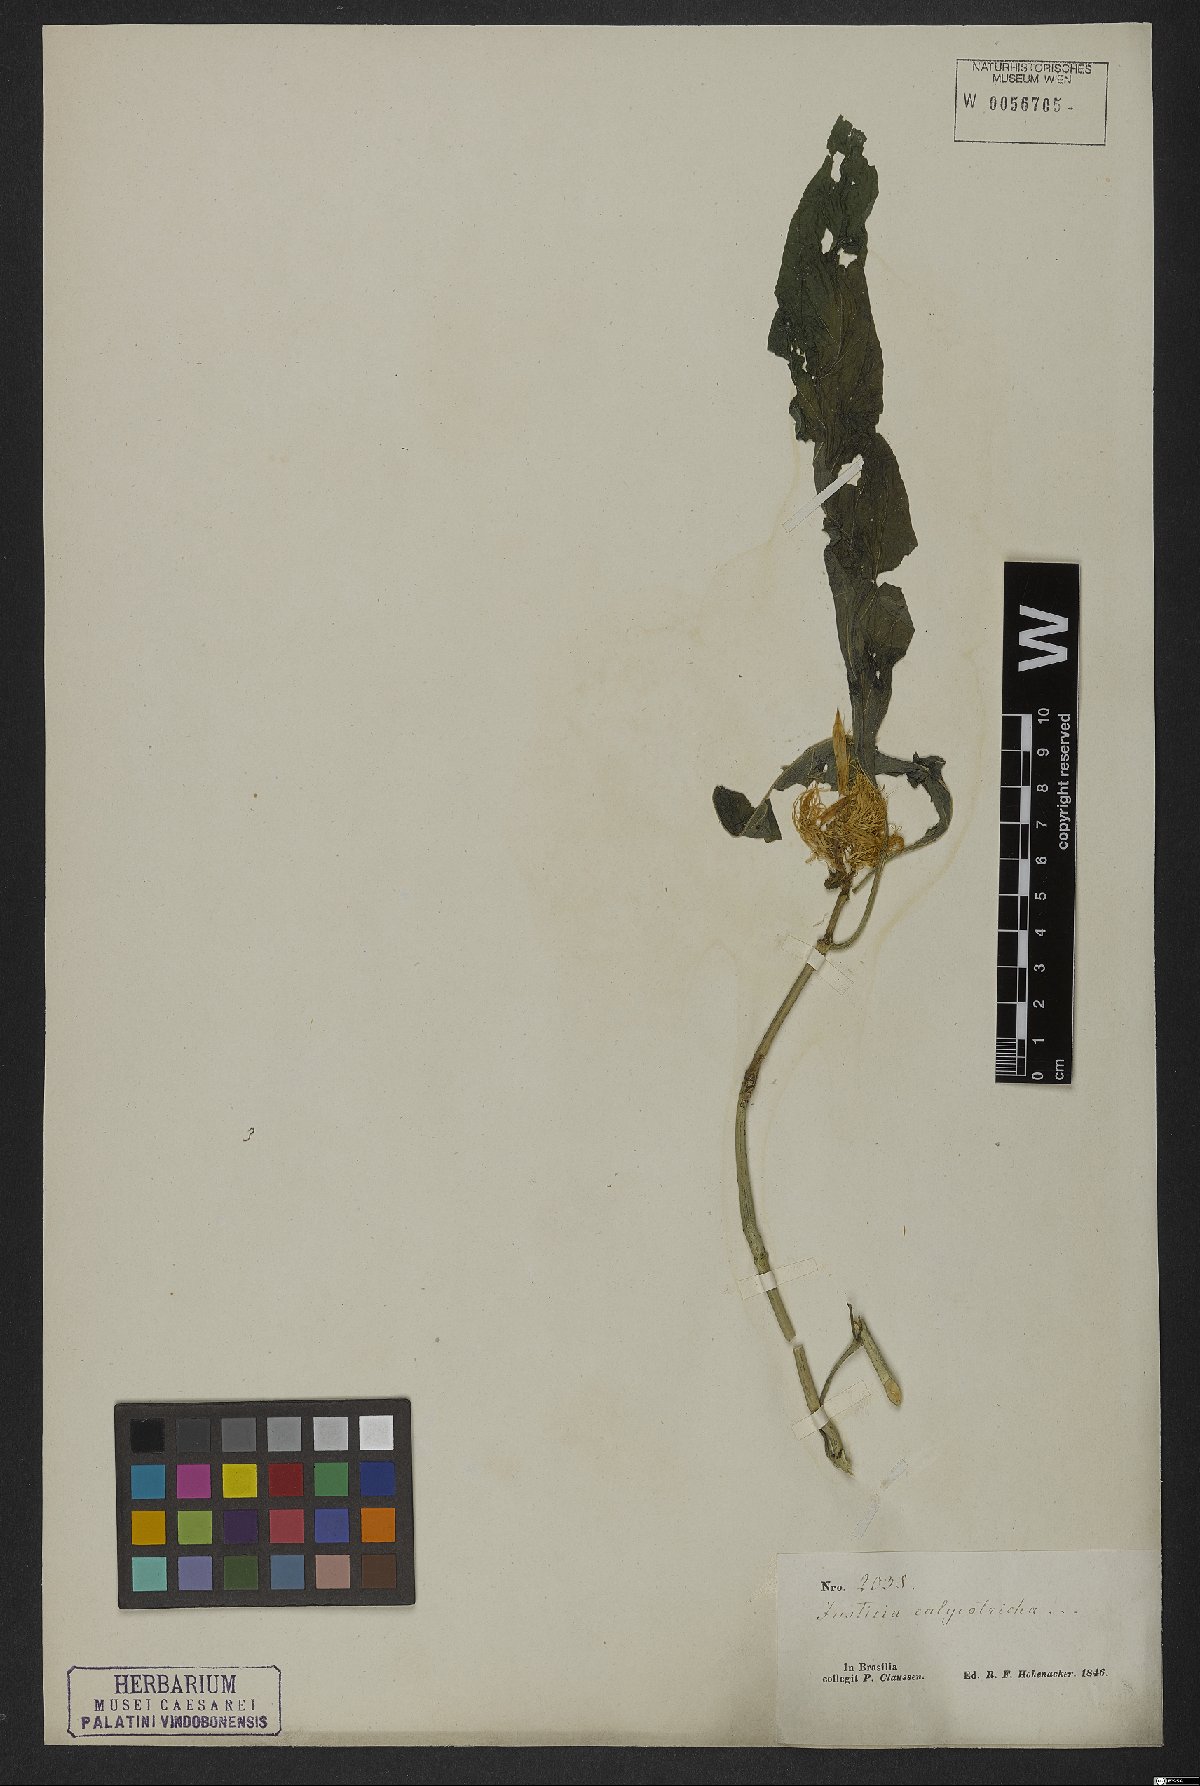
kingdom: Plantae
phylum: Tracheophyta
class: Magnoliopsida
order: Lamiales
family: Acanthaceae
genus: Schaueria
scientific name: Schaueria calytricha
